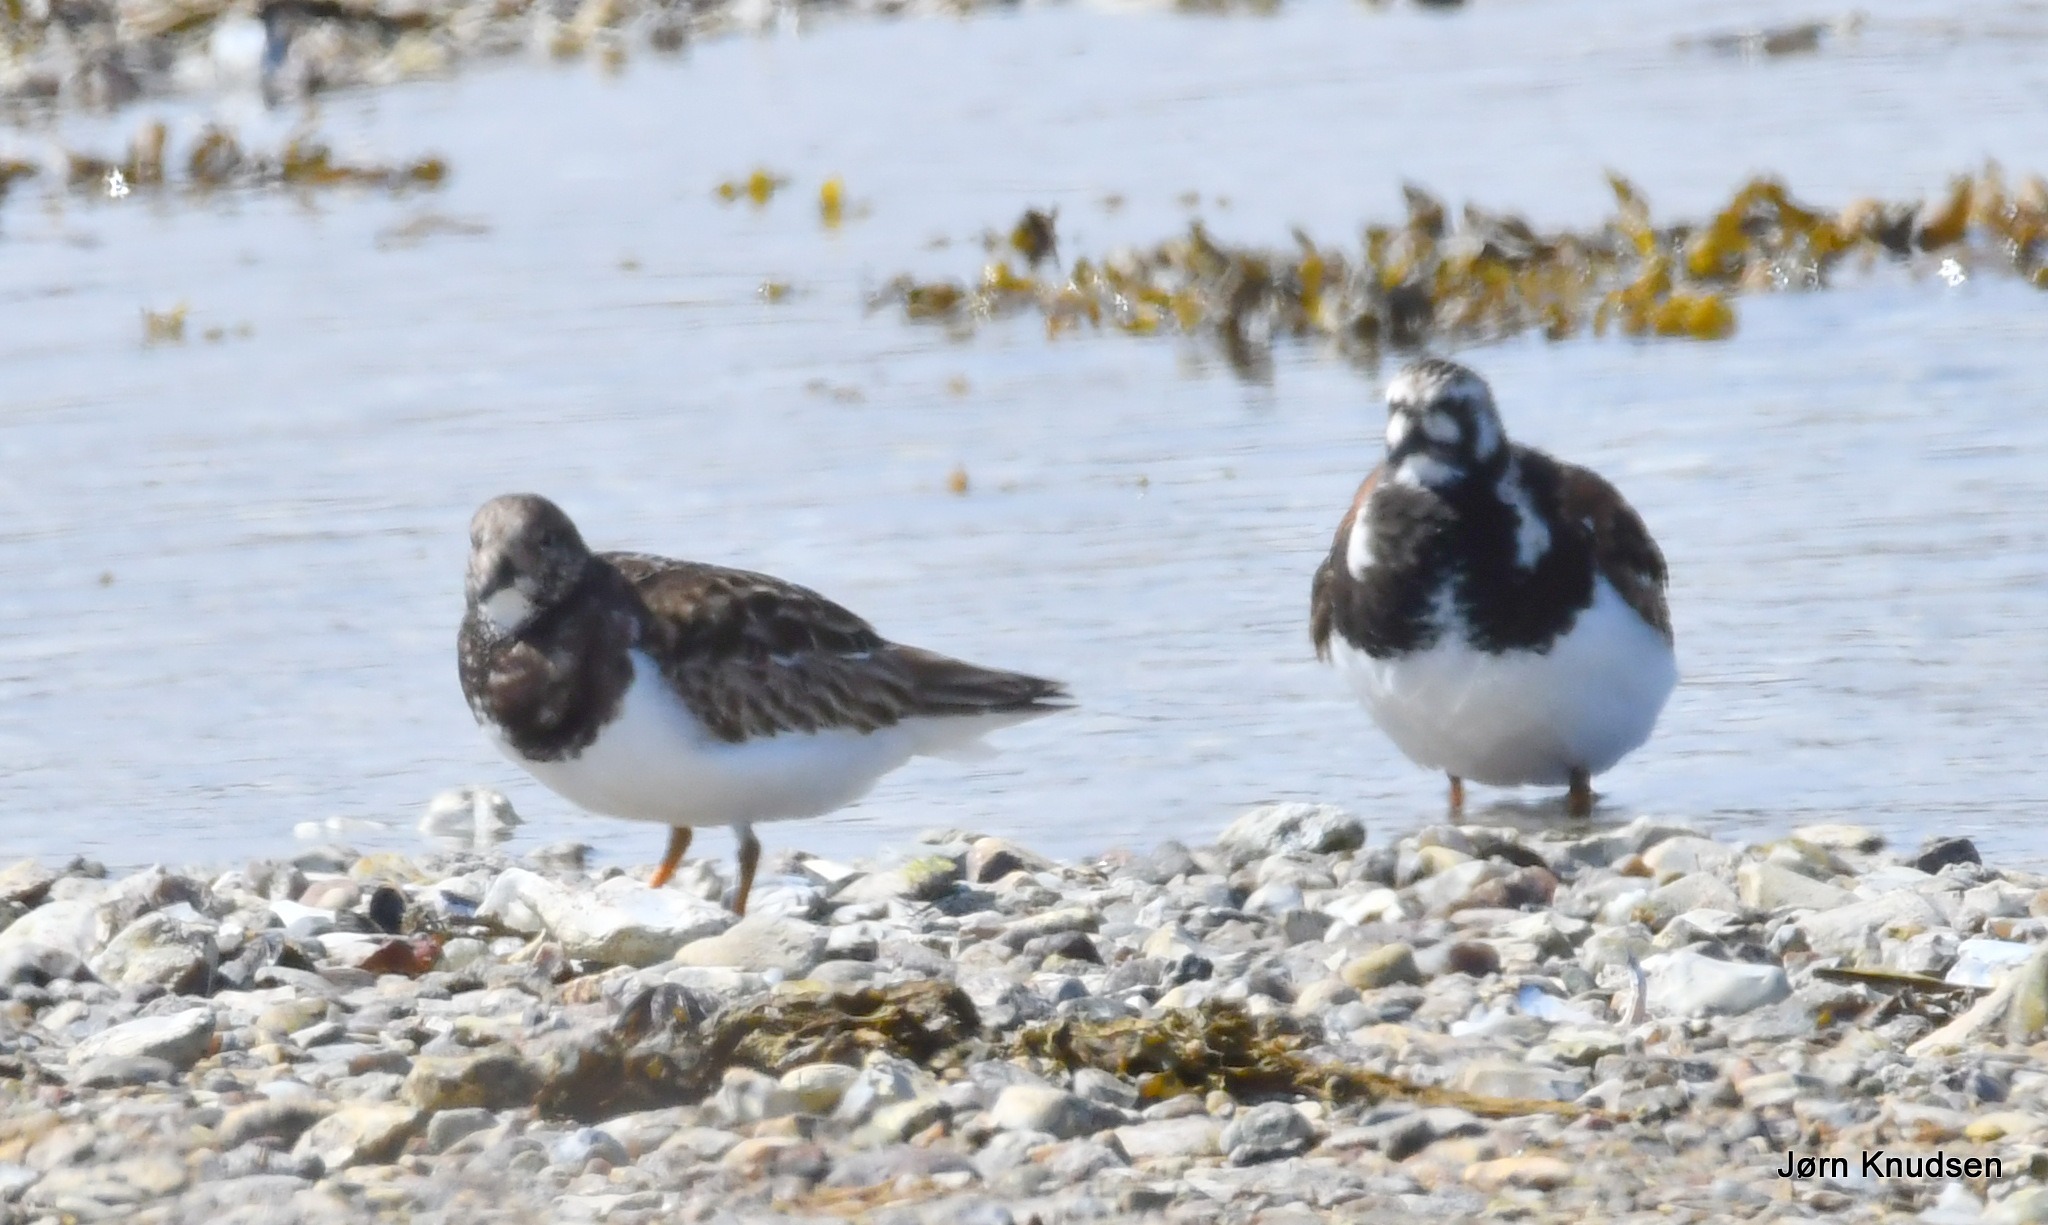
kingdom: Animalia
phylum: Chordata
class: Aves
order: Charadriiformes
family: Scolopacidae
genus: Arenaria
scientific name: Arenaria interpres
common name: Stenvender
